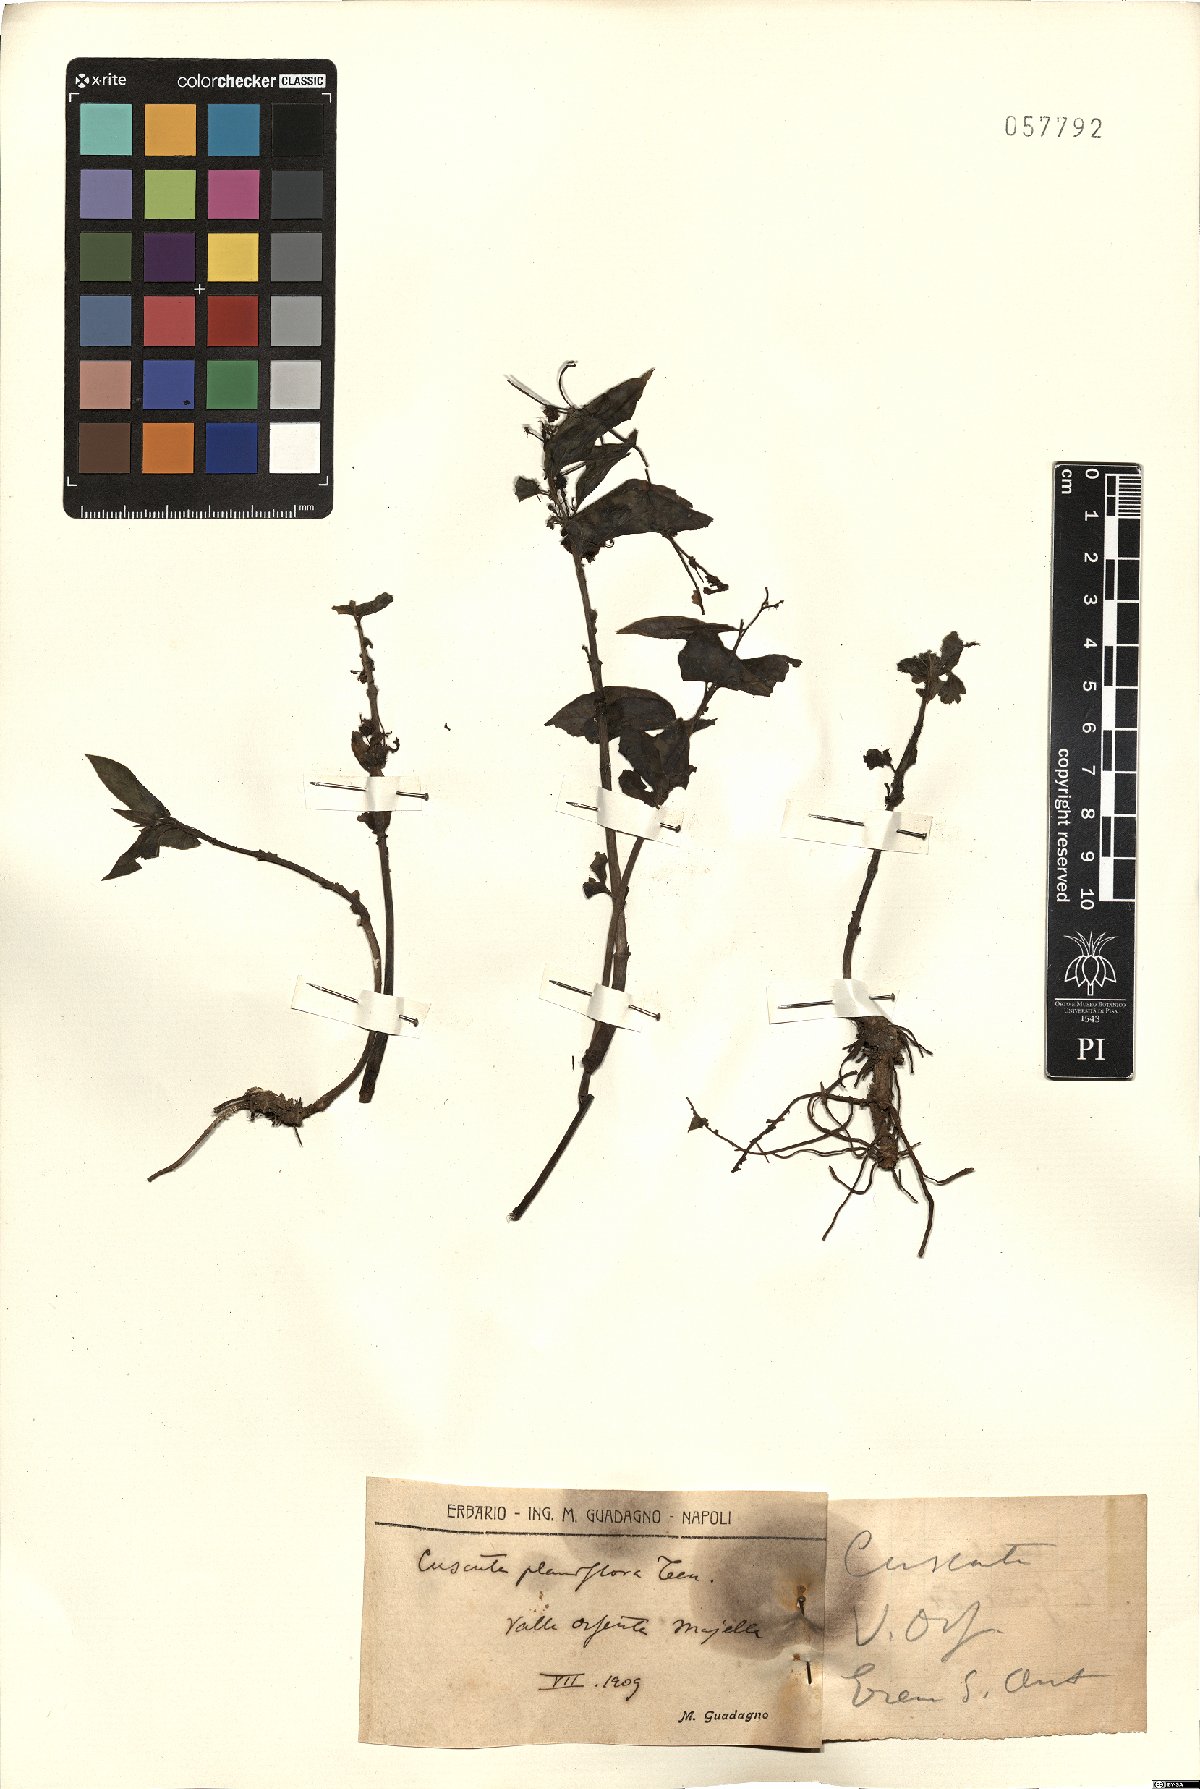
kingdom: Plantae
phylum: Tracheophyta
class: Magnoliopsida
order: Solanales
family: Convolvulaceae
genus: Cuscuta
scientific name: Cuscuta planiflora
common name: Small-seed alfalfa dodder
